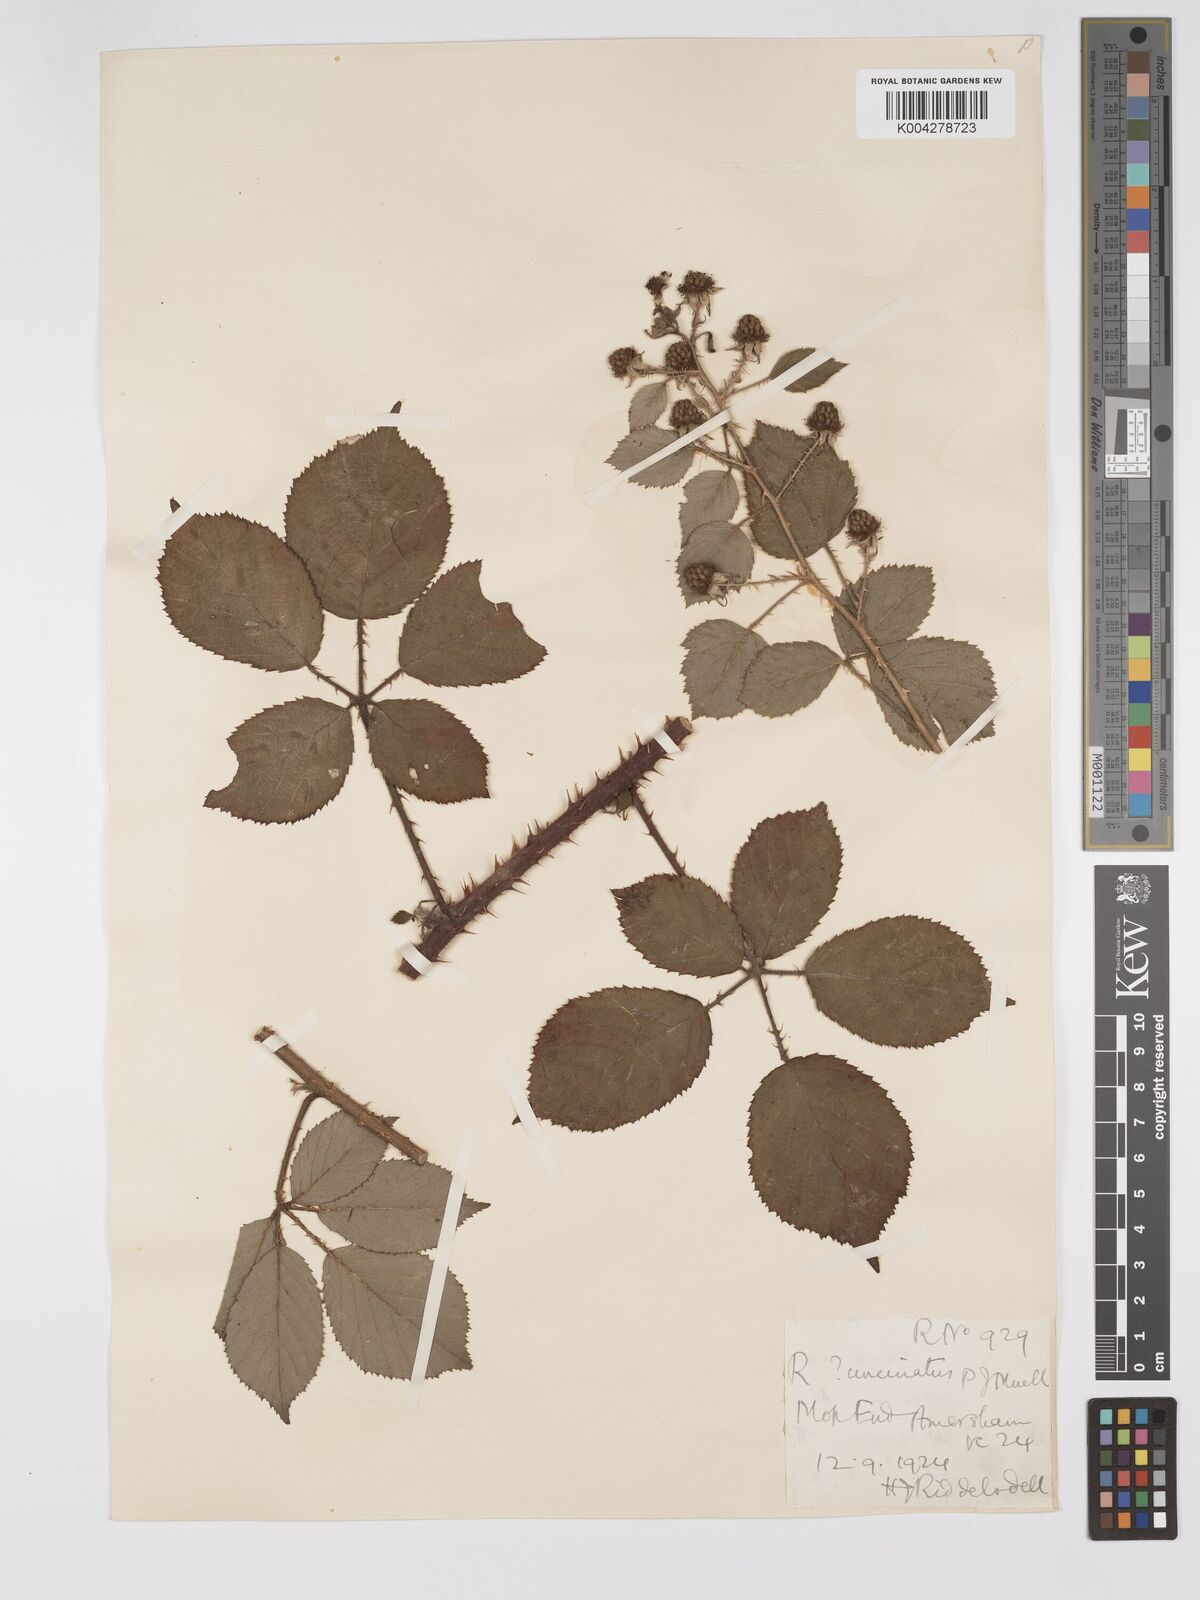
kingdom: Plantae
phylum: Tracheophyta
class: Magnoliopsida
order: Rosales
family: Rosaceae
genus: Rubus
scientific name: Rubus uncinatus
